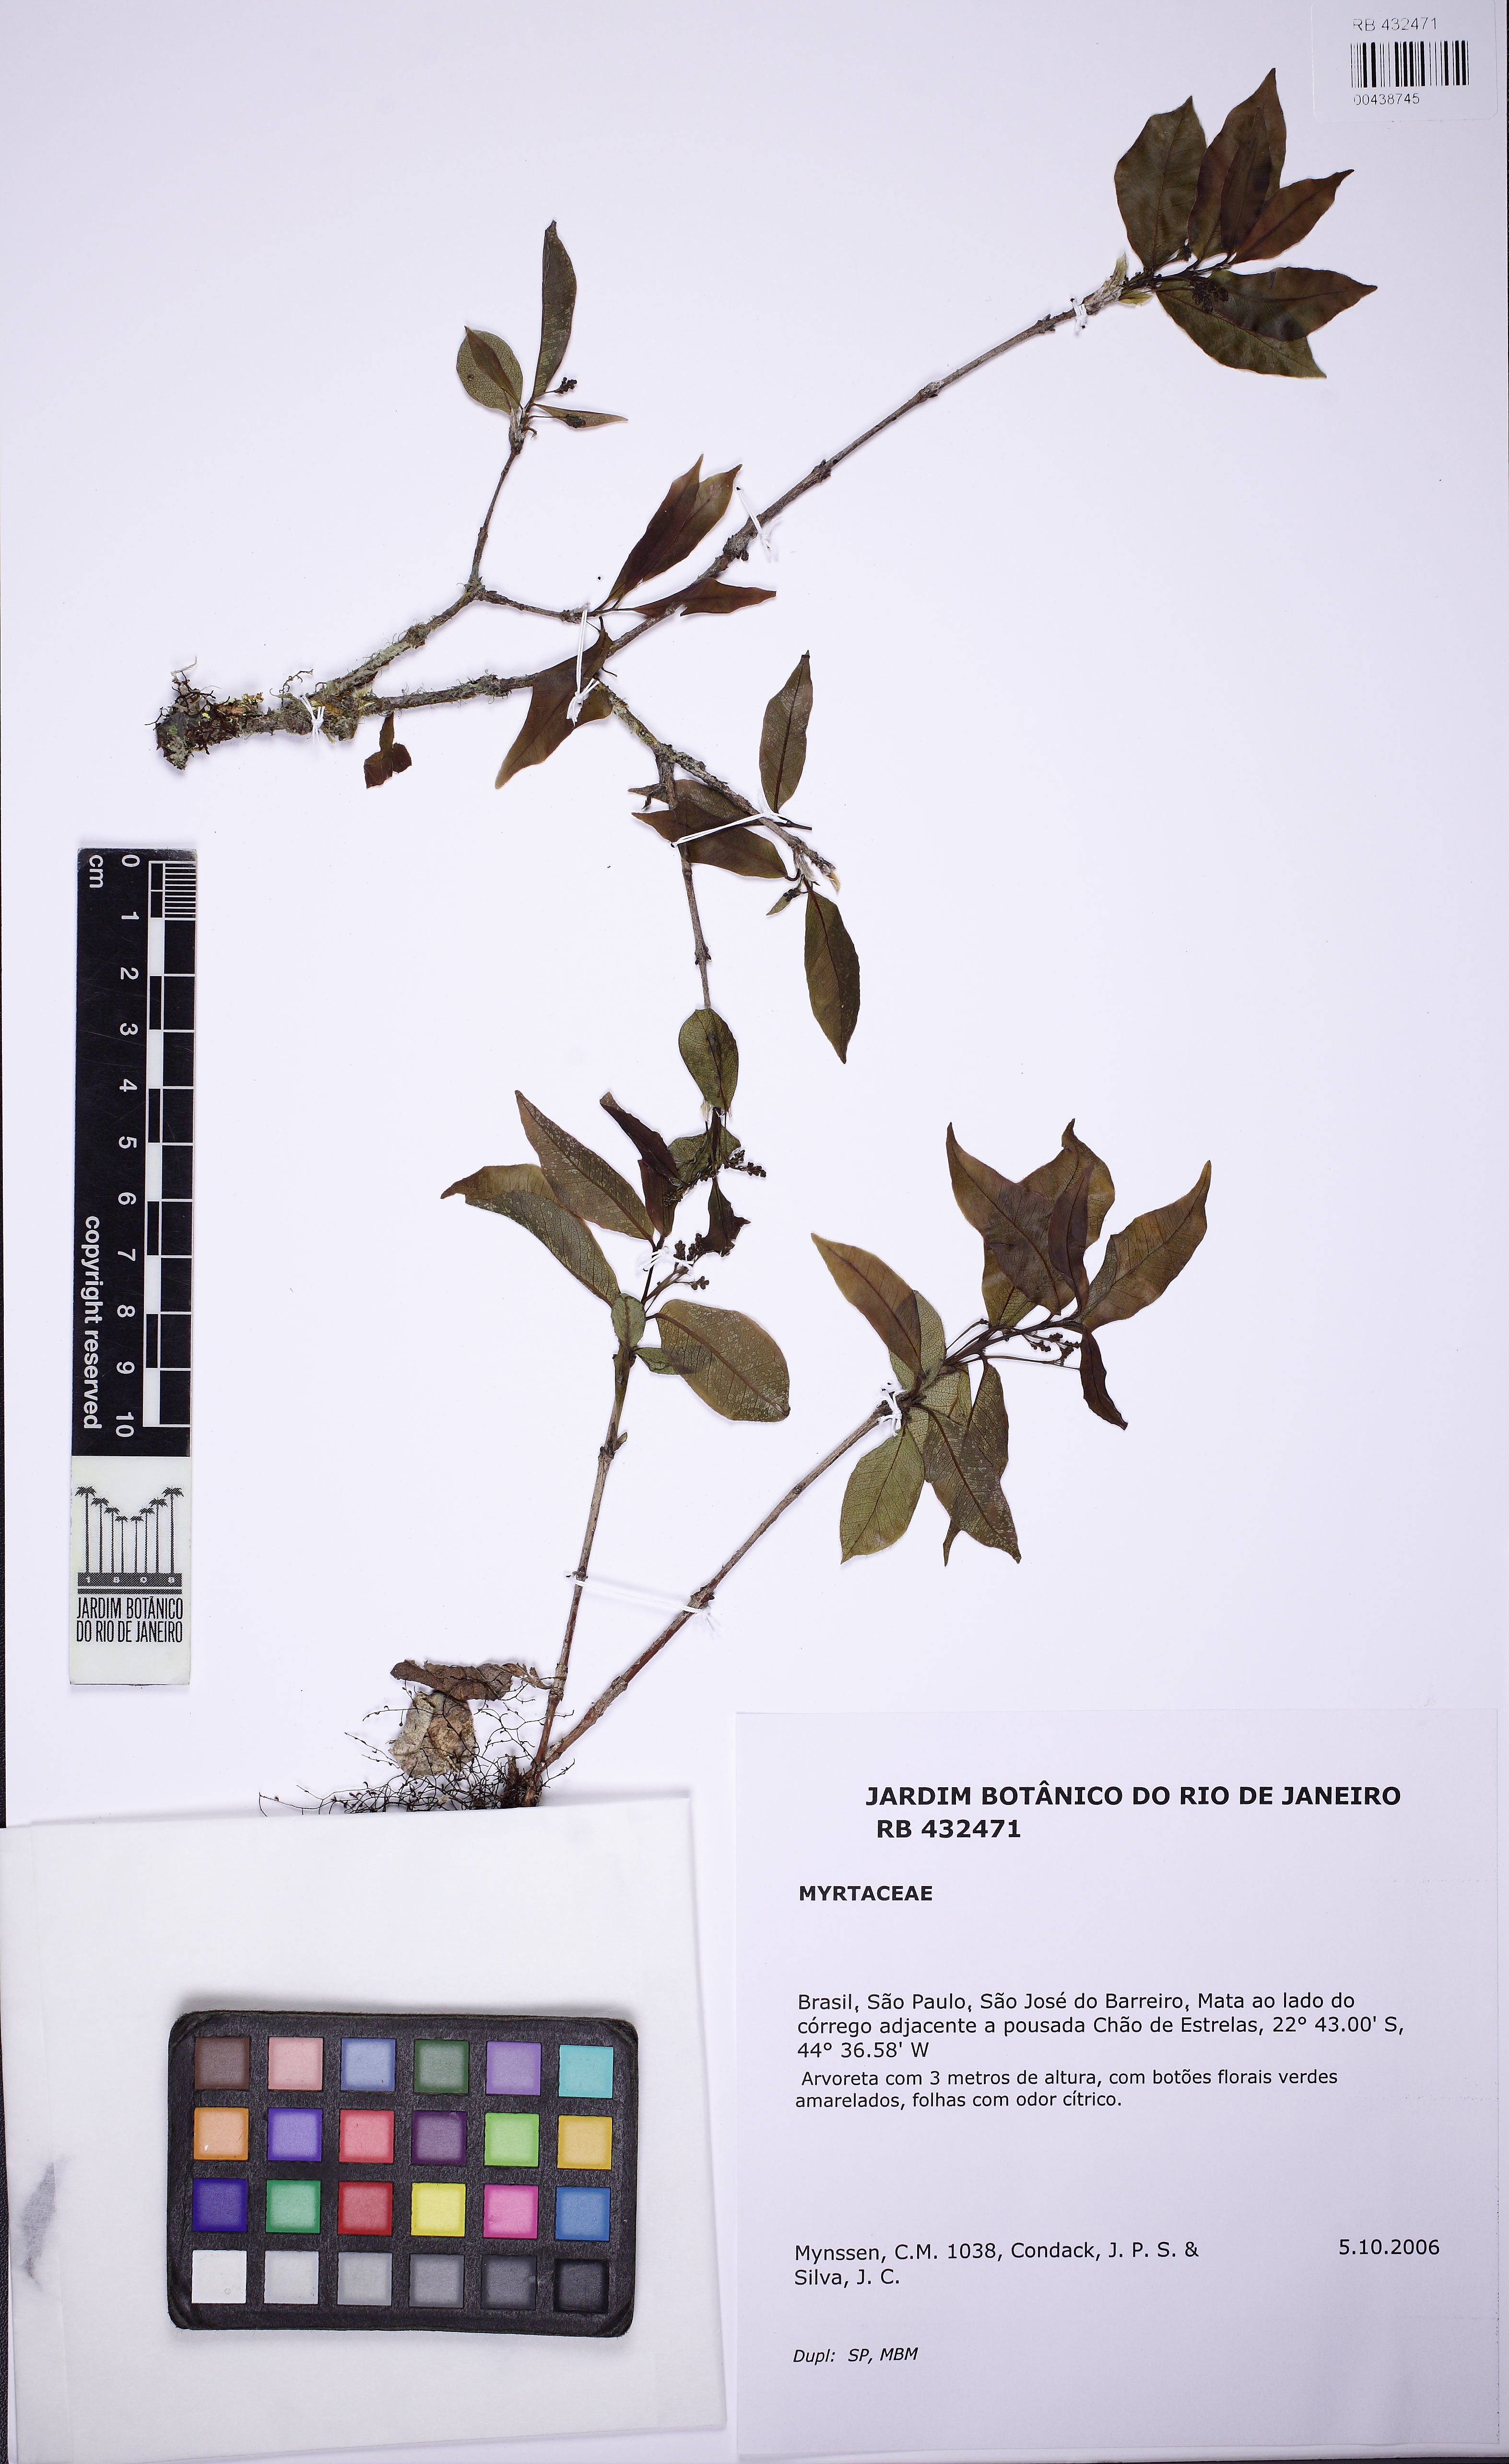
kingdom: Plantae
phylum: Tracheophyta
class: Magnoliopsida
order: Myrtales
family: Myrtaceae
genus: Myrcia
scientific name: Myrcia laruotteana
